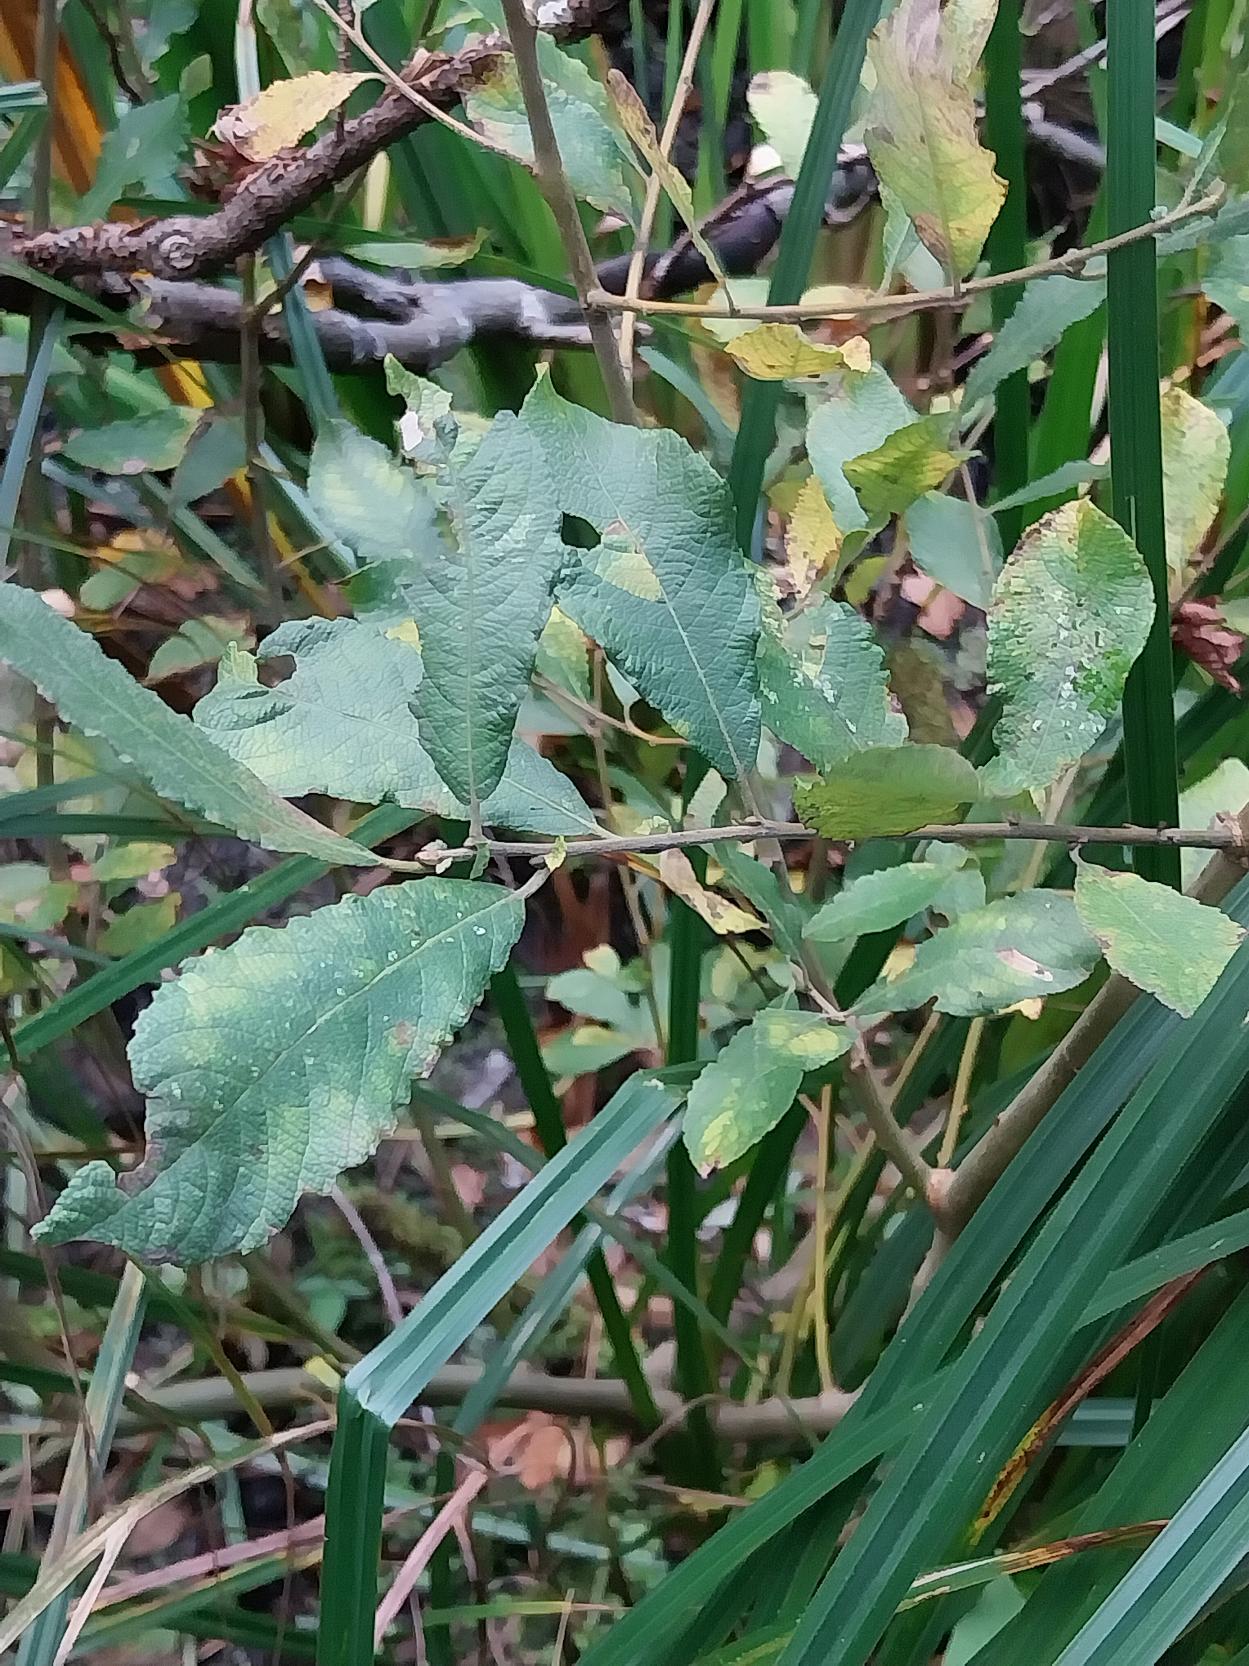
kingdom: Plantae
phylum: Tracheophyta
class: Magnoliopsida
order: Malpighiales
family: Salicaceae
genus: Salix
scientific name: Salix cinerea
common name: Grå-pil
